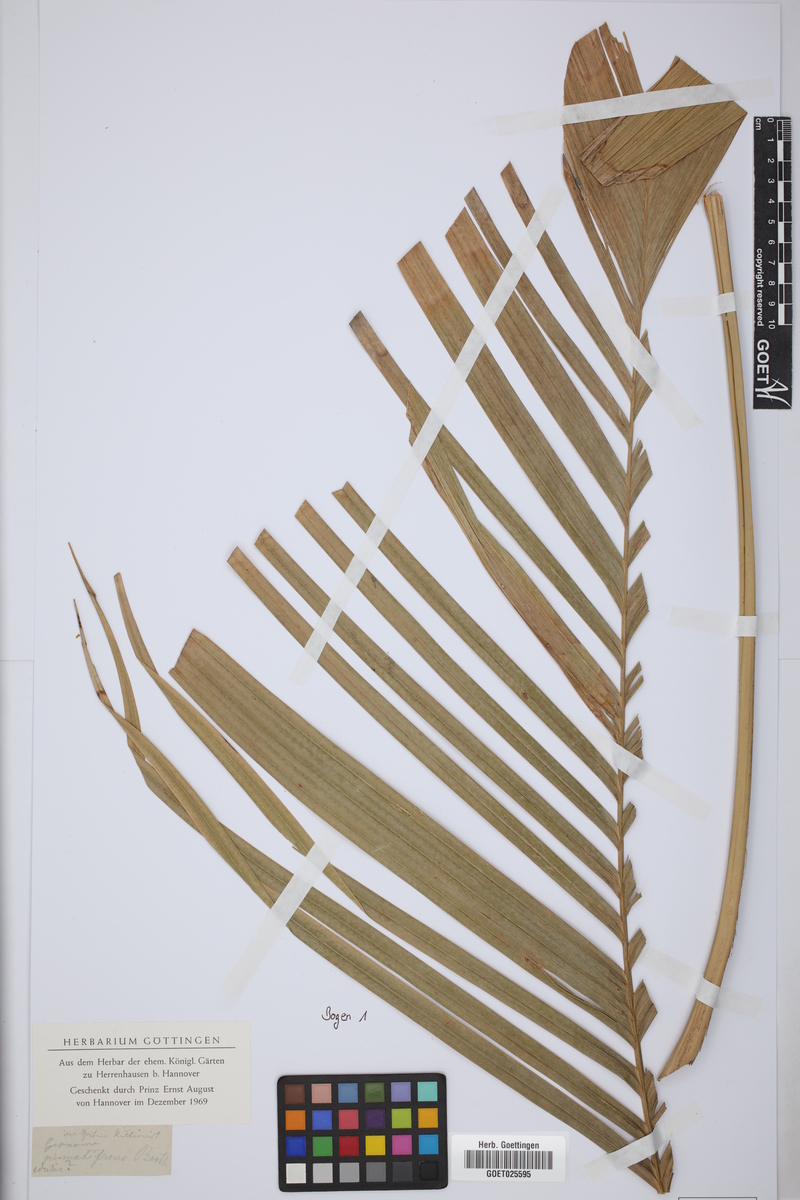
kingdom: Plantae
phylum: Tracheophyta
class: Liliopsida
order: Arecales
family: Arecaceae
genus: Geonoma
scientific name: Geonoma pinnatifrons
